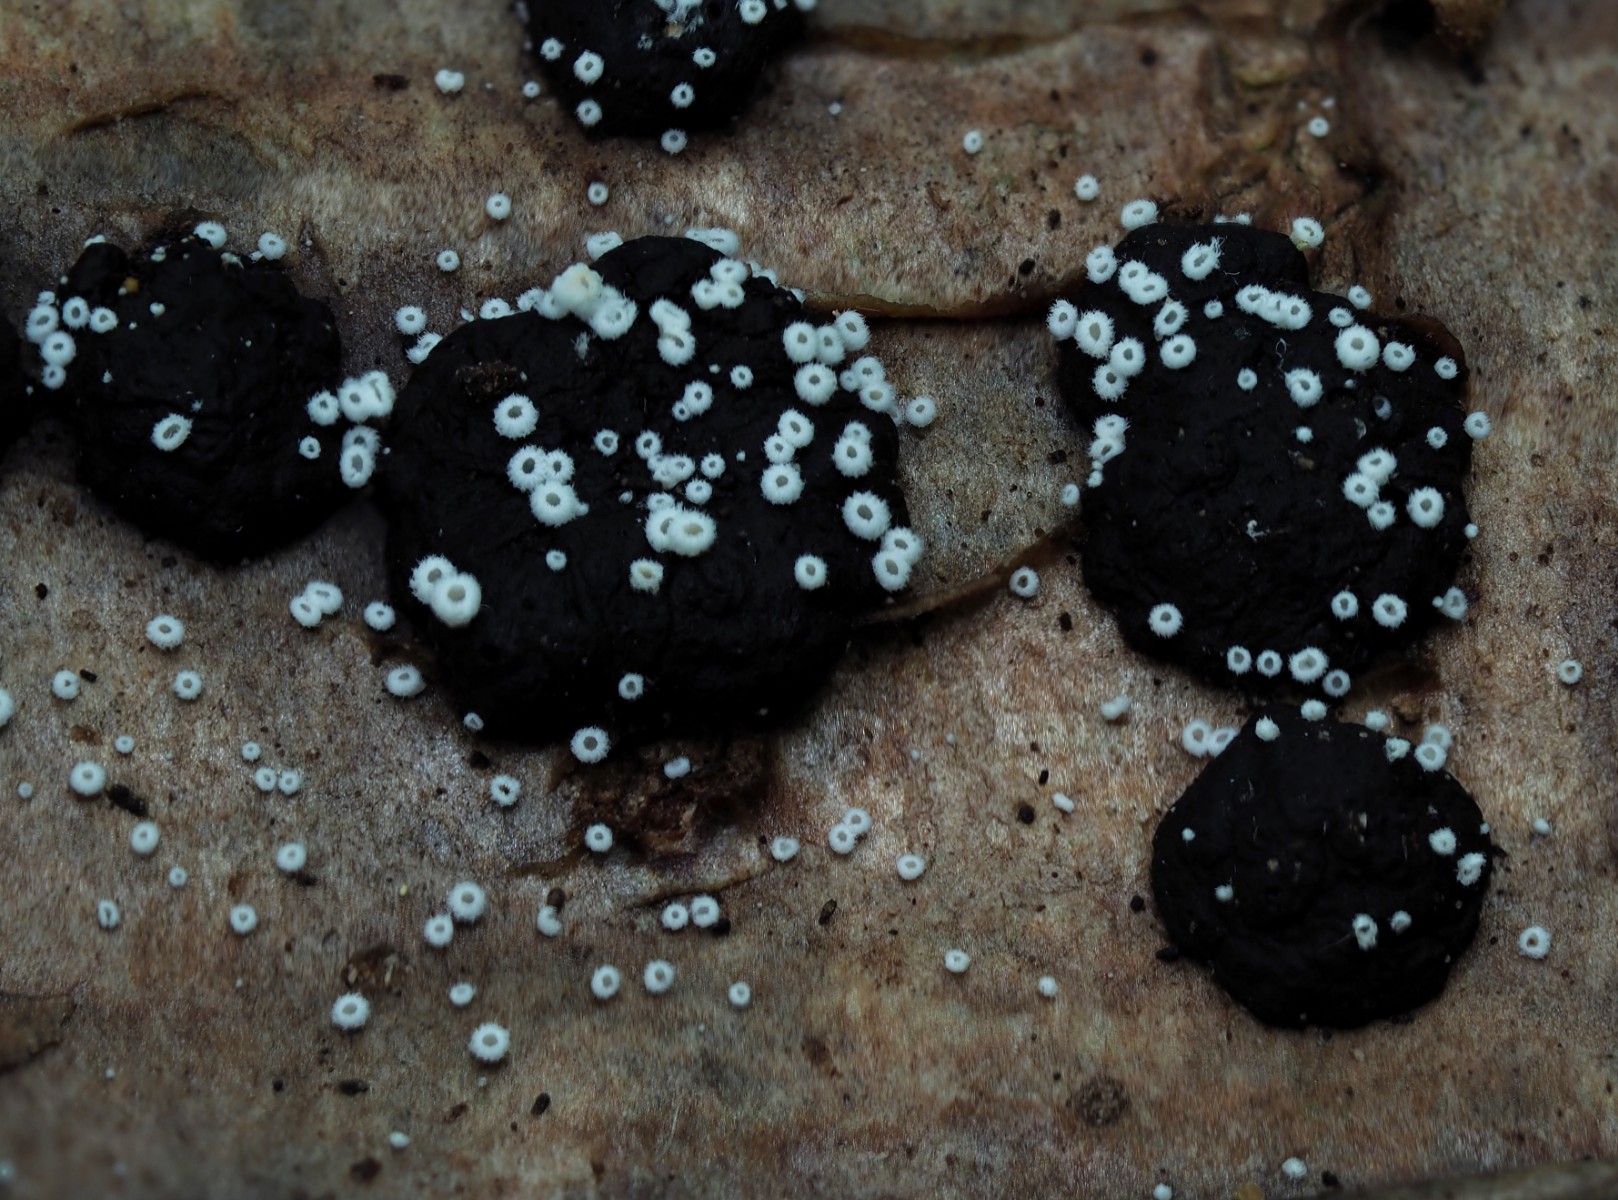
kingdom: Fungi
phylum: Basidiomycota
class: Agaricomycetes
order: Agaricales
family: Niaceae
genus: Flagelloscypha
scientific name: Flagelloscypha minutissima
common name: lille hængeskål
